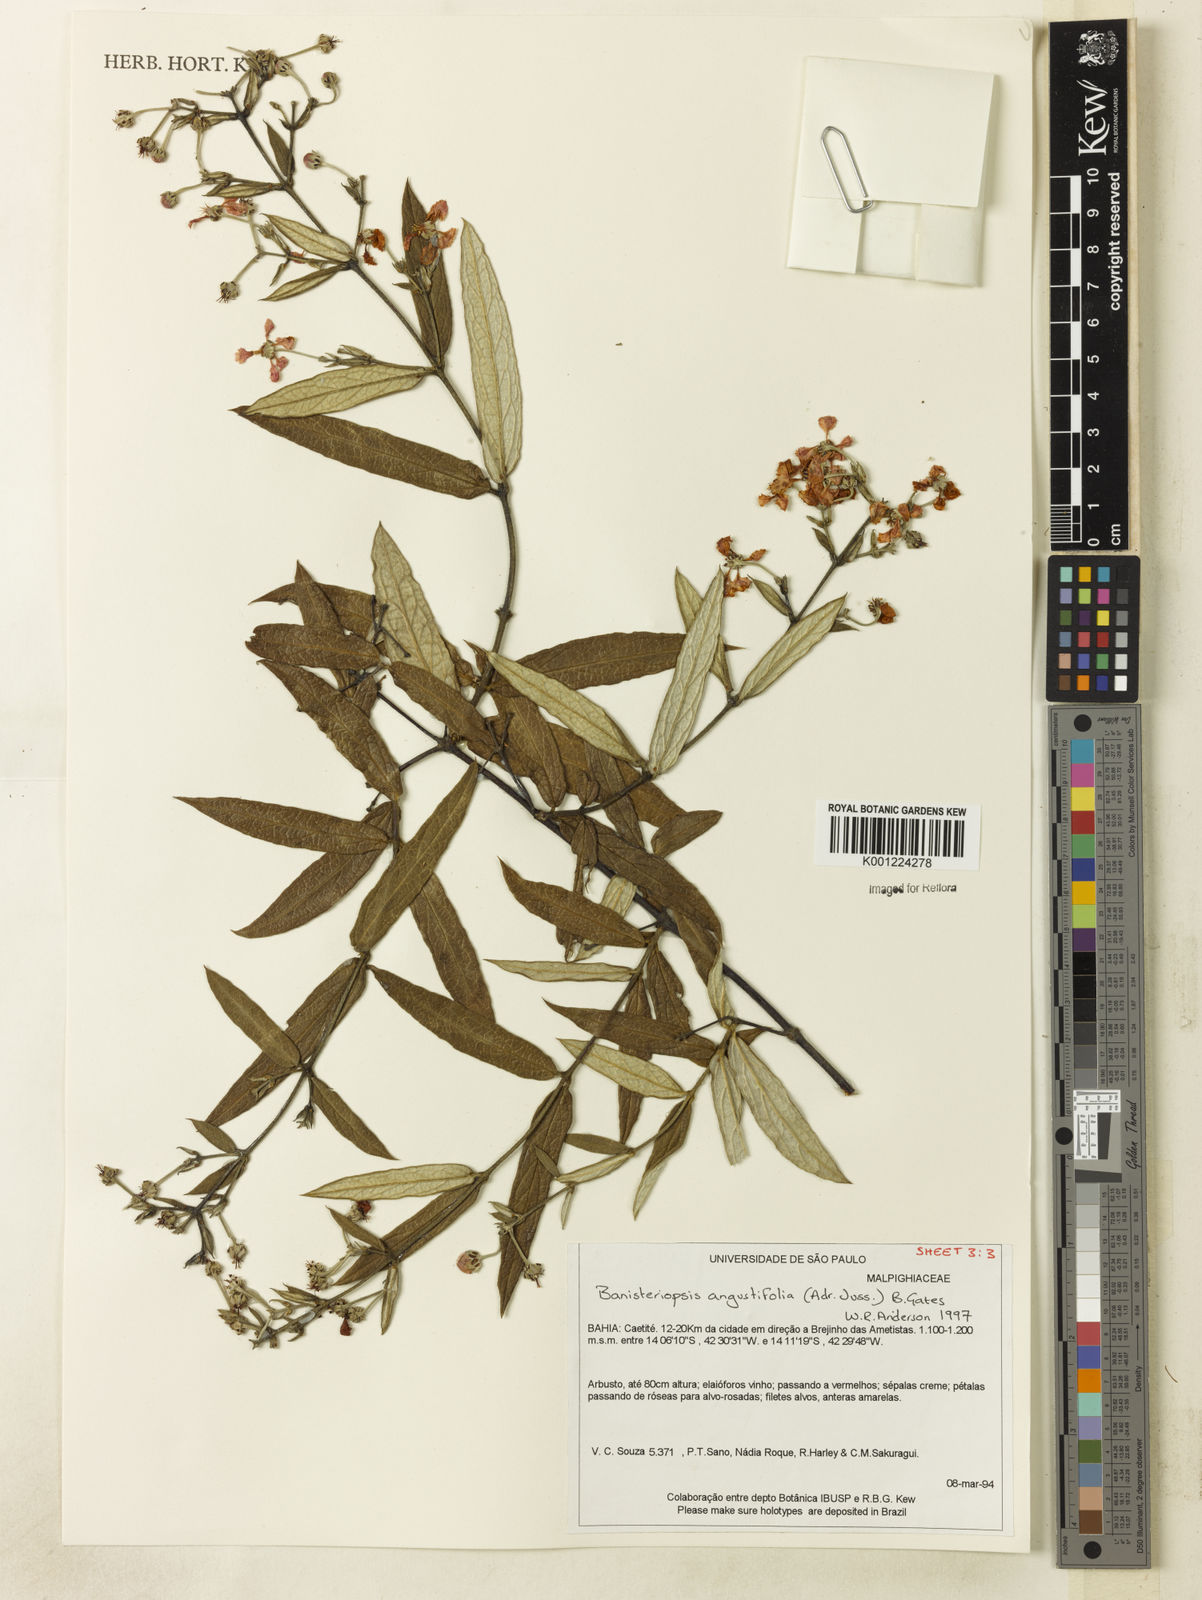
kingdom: Plantae
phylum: Tracheophyta
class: Magnoliopsida
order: Malpighiales
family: Malpighiaceae
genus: Banisteriopsis
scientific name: Banisteriopsis angustifolia
